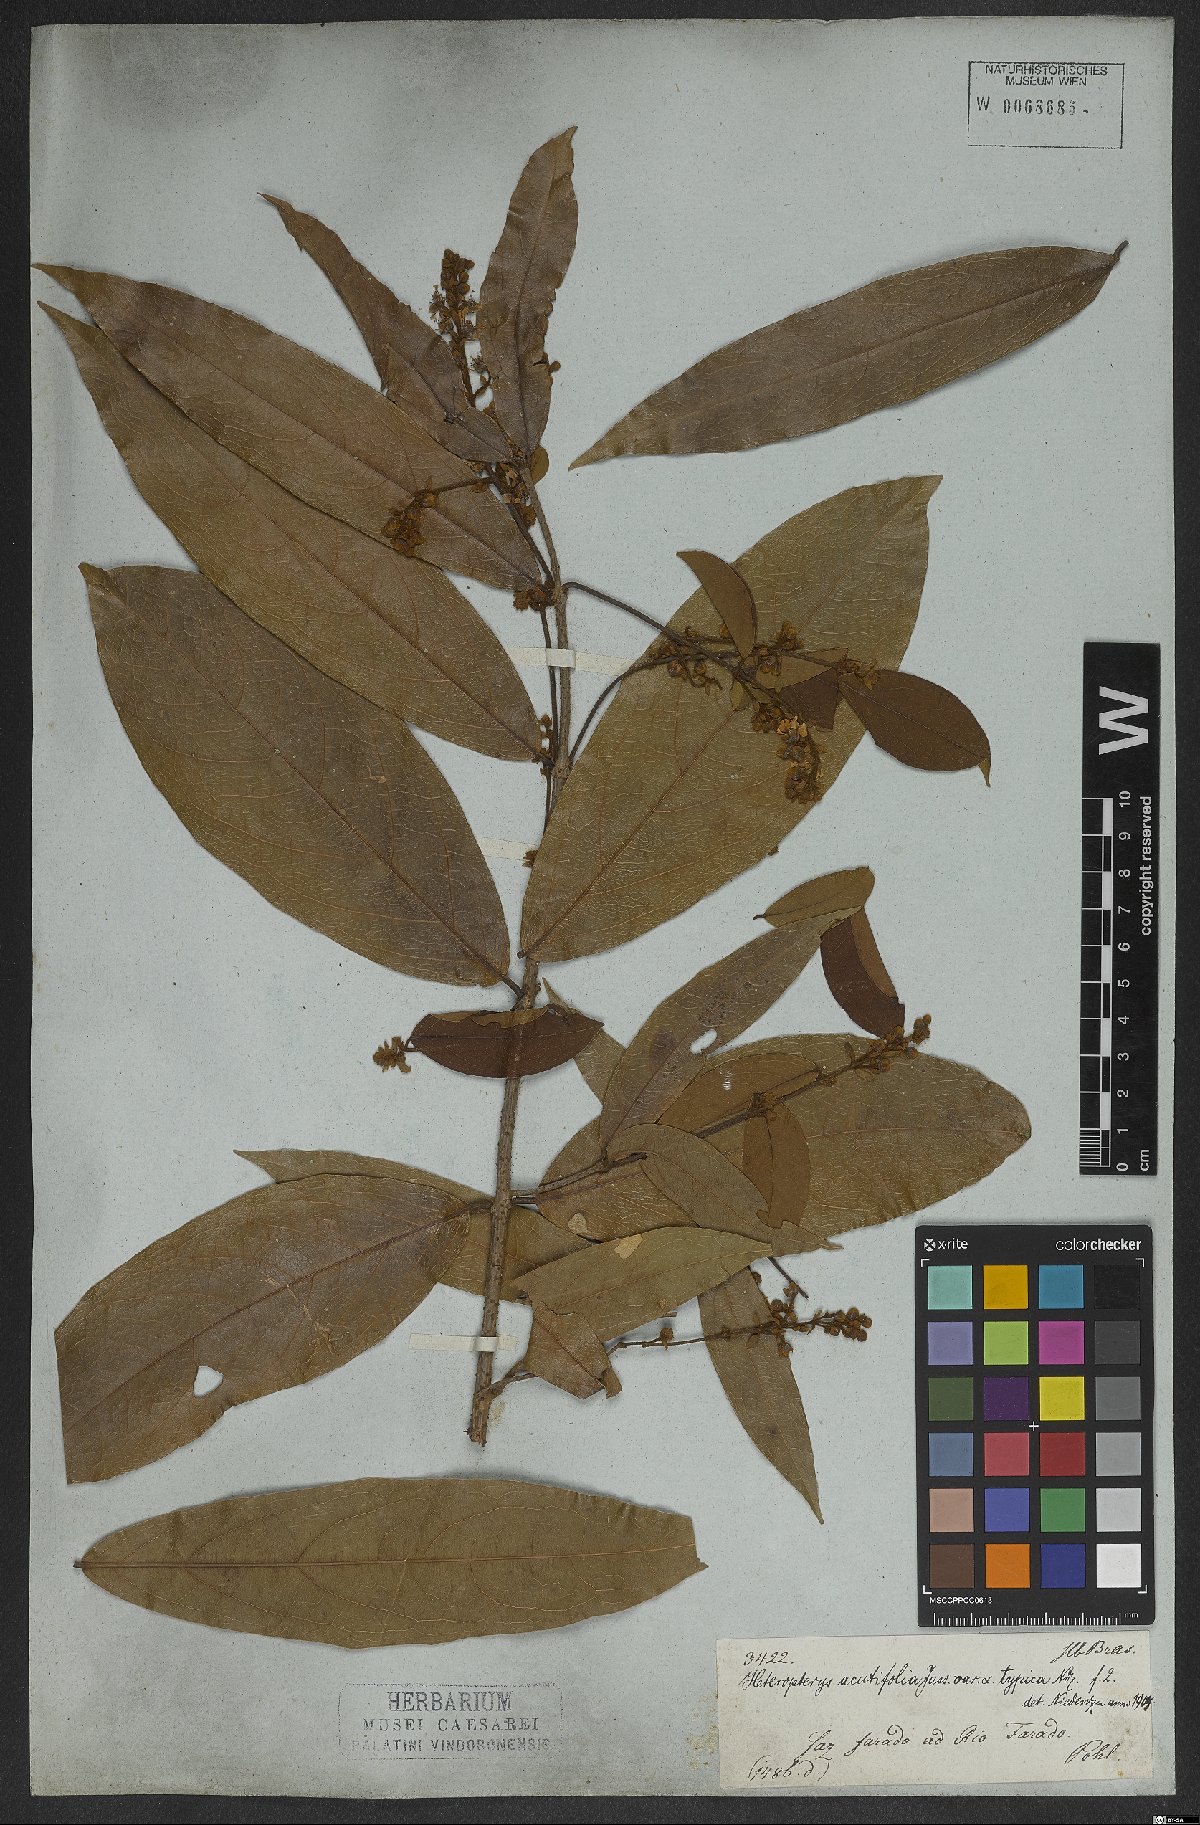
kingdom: Plantae
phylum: Tracheophyta
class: Magnoliopsida
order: Malpighiales
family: Malpighiaceae
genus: Heteropterys
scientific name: Heteropterys orinocensis
